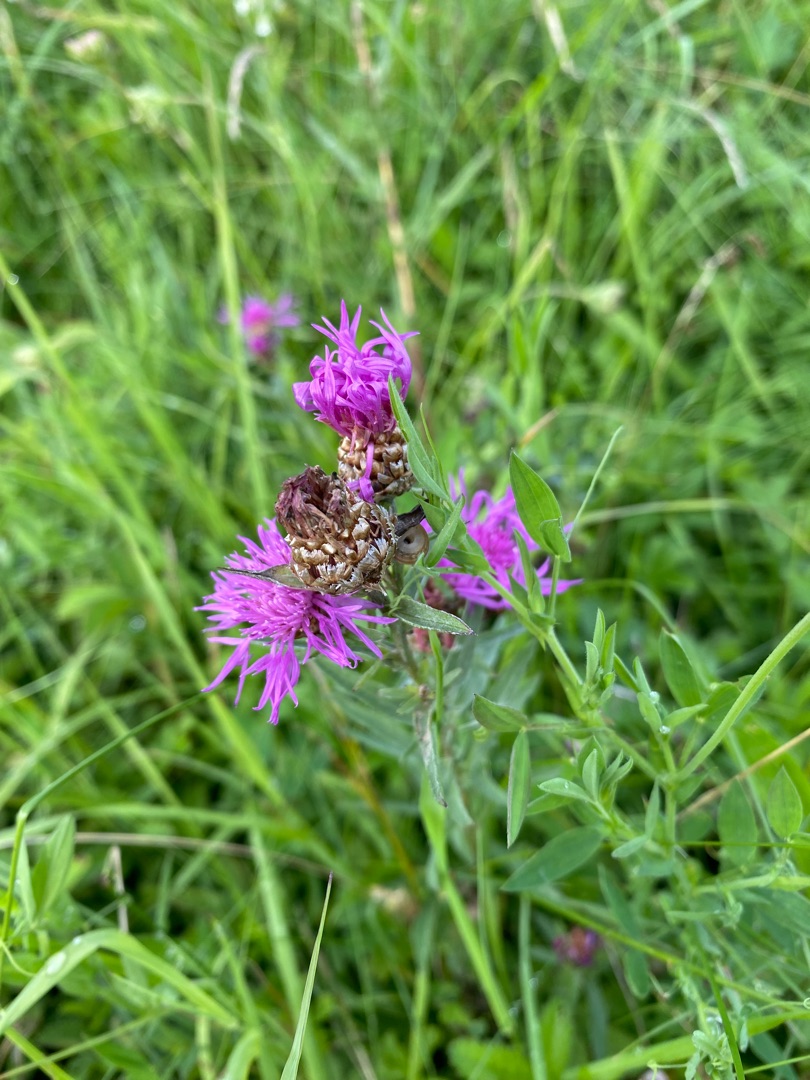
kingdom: Plantae
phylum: Tracheophyta
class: Magnoliopsida
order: Asterales
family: Asteraceae
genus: Centaurea
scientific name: Centaurea jacea
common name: Almindelig knopurt
